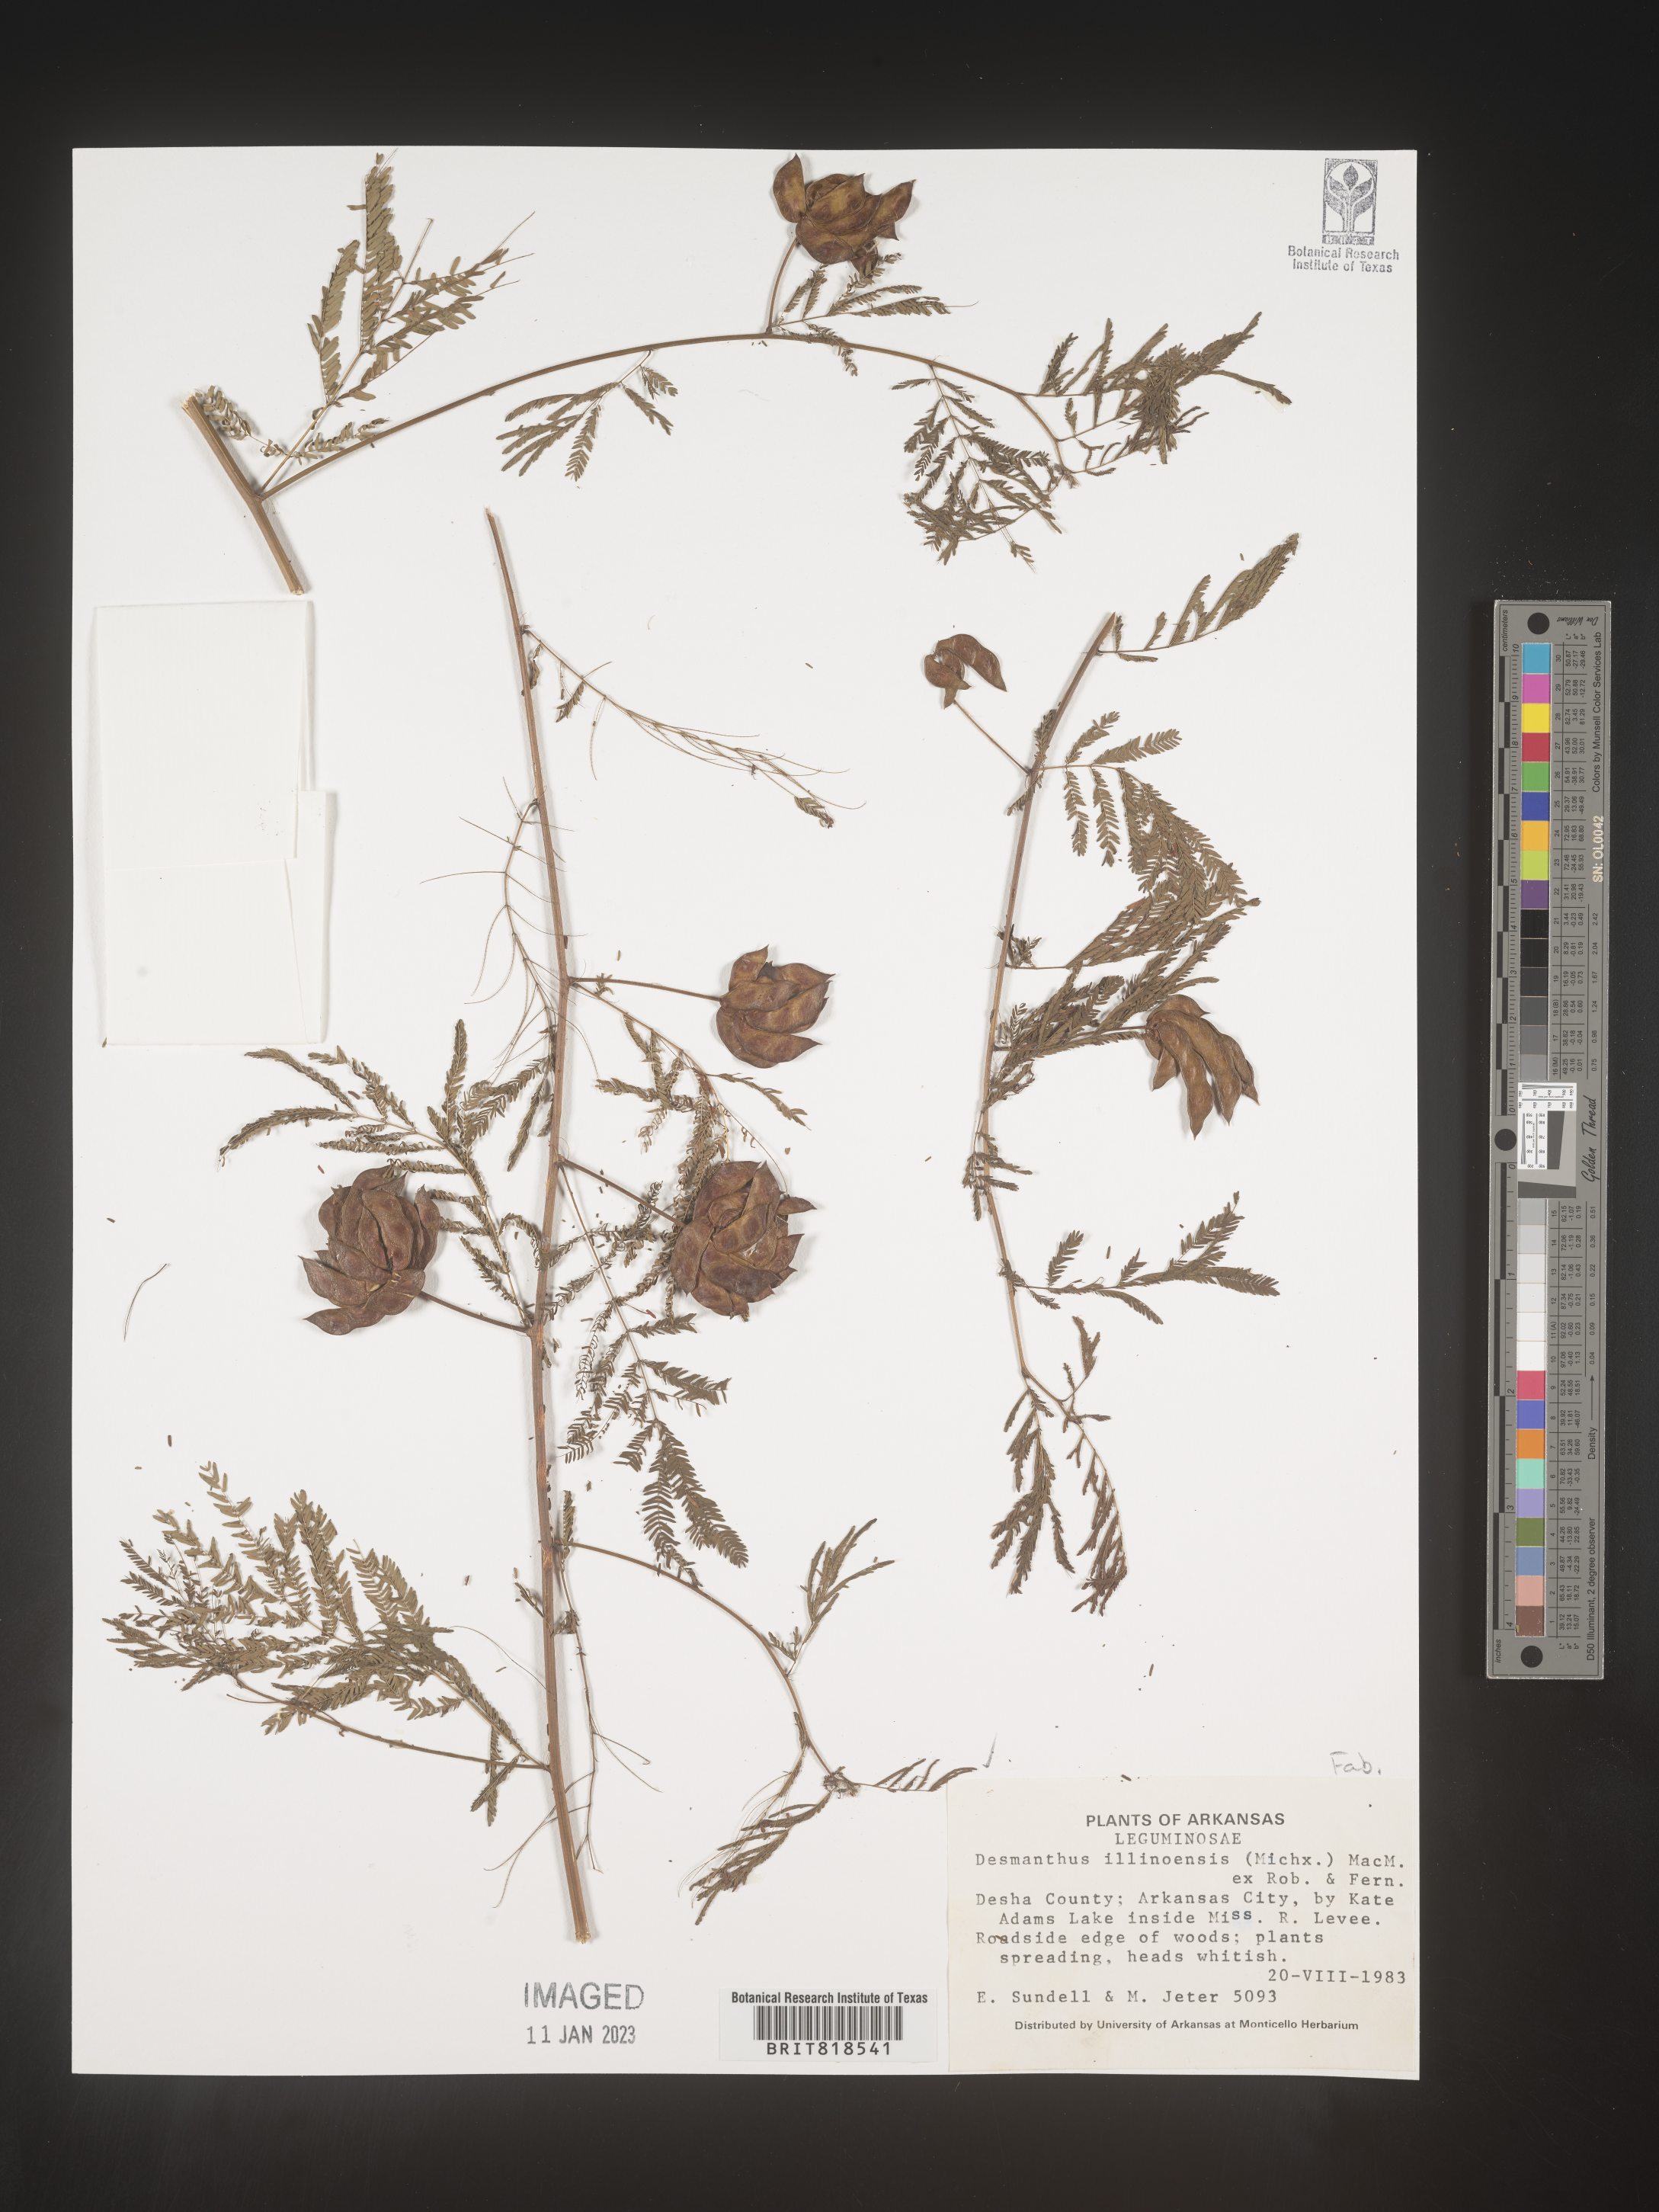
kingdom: Plantae
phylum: Tracheophyta
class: Magnoliopsida
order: Fabales
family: Fabaceae
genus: Desmanthus
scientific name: Desmanthus illinoensis
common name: Illinois bundle-flower
